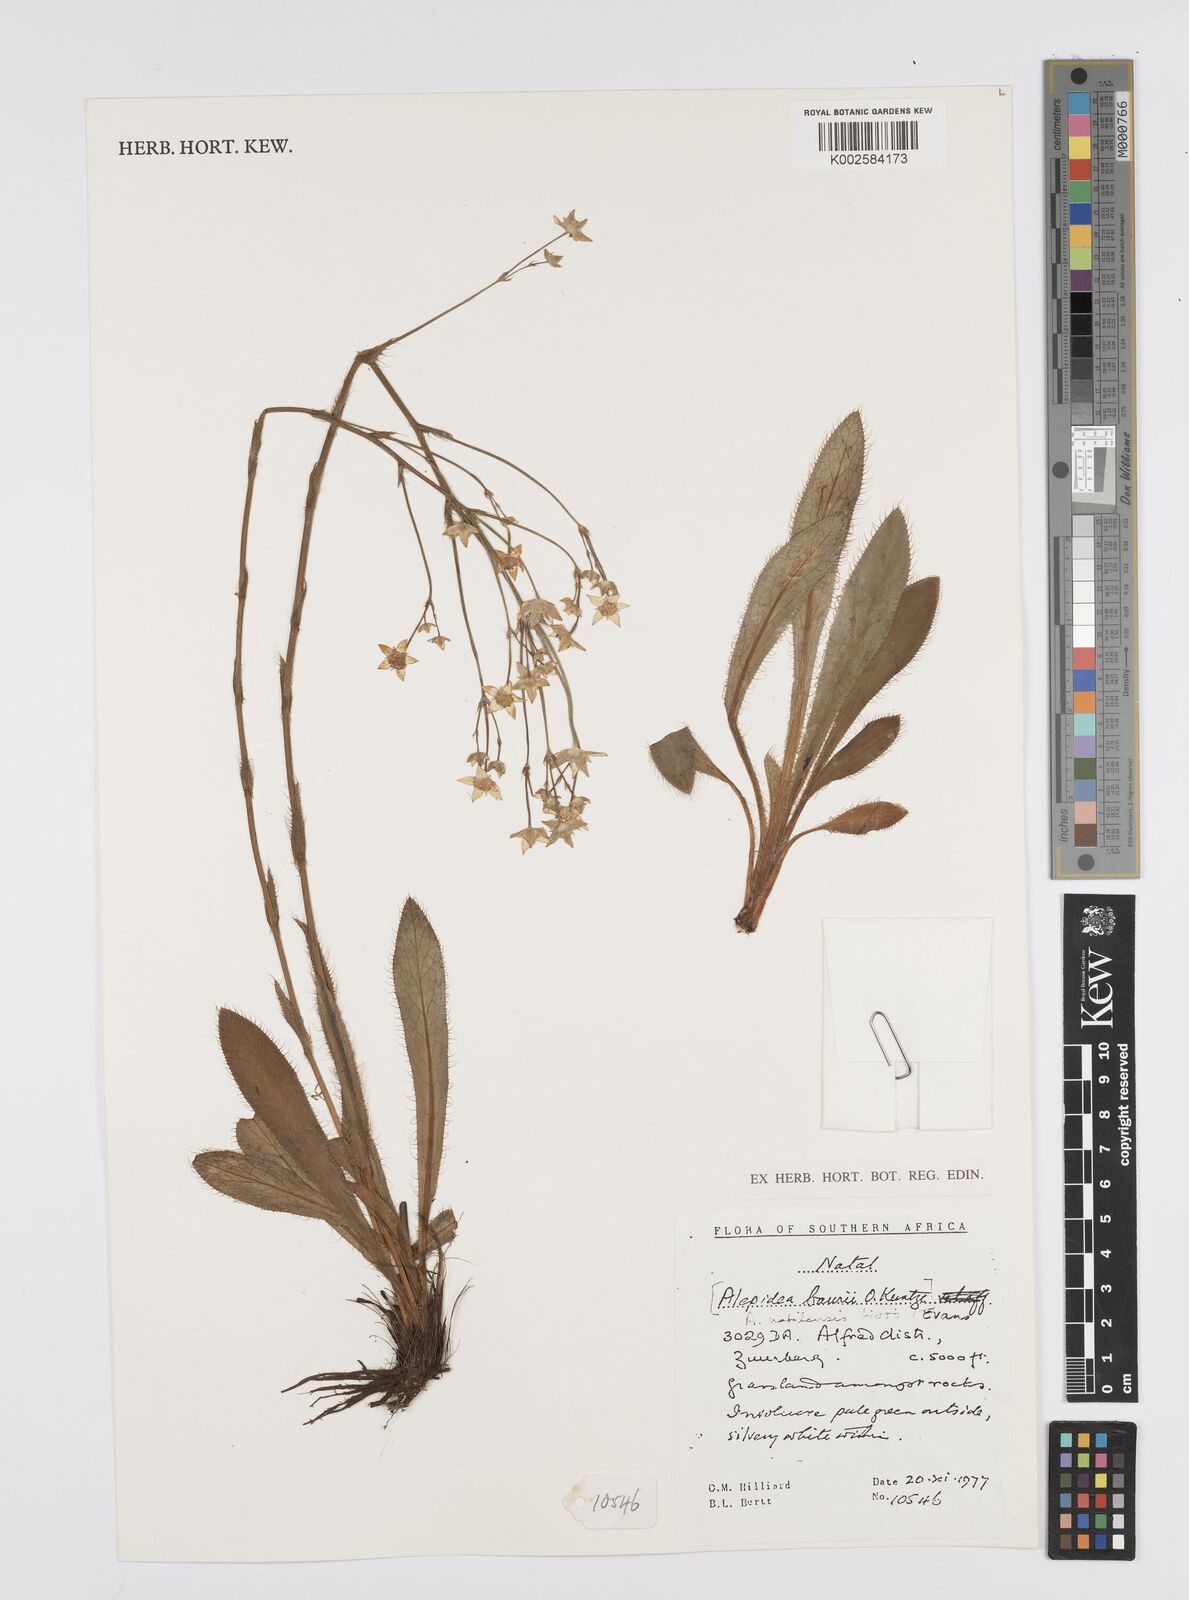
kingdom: Plantae
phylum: Tracheophyta
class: Magnoliopsida
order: Apiales
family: Apiaceae
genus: Alepidea
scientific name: Alepidea natalensis
